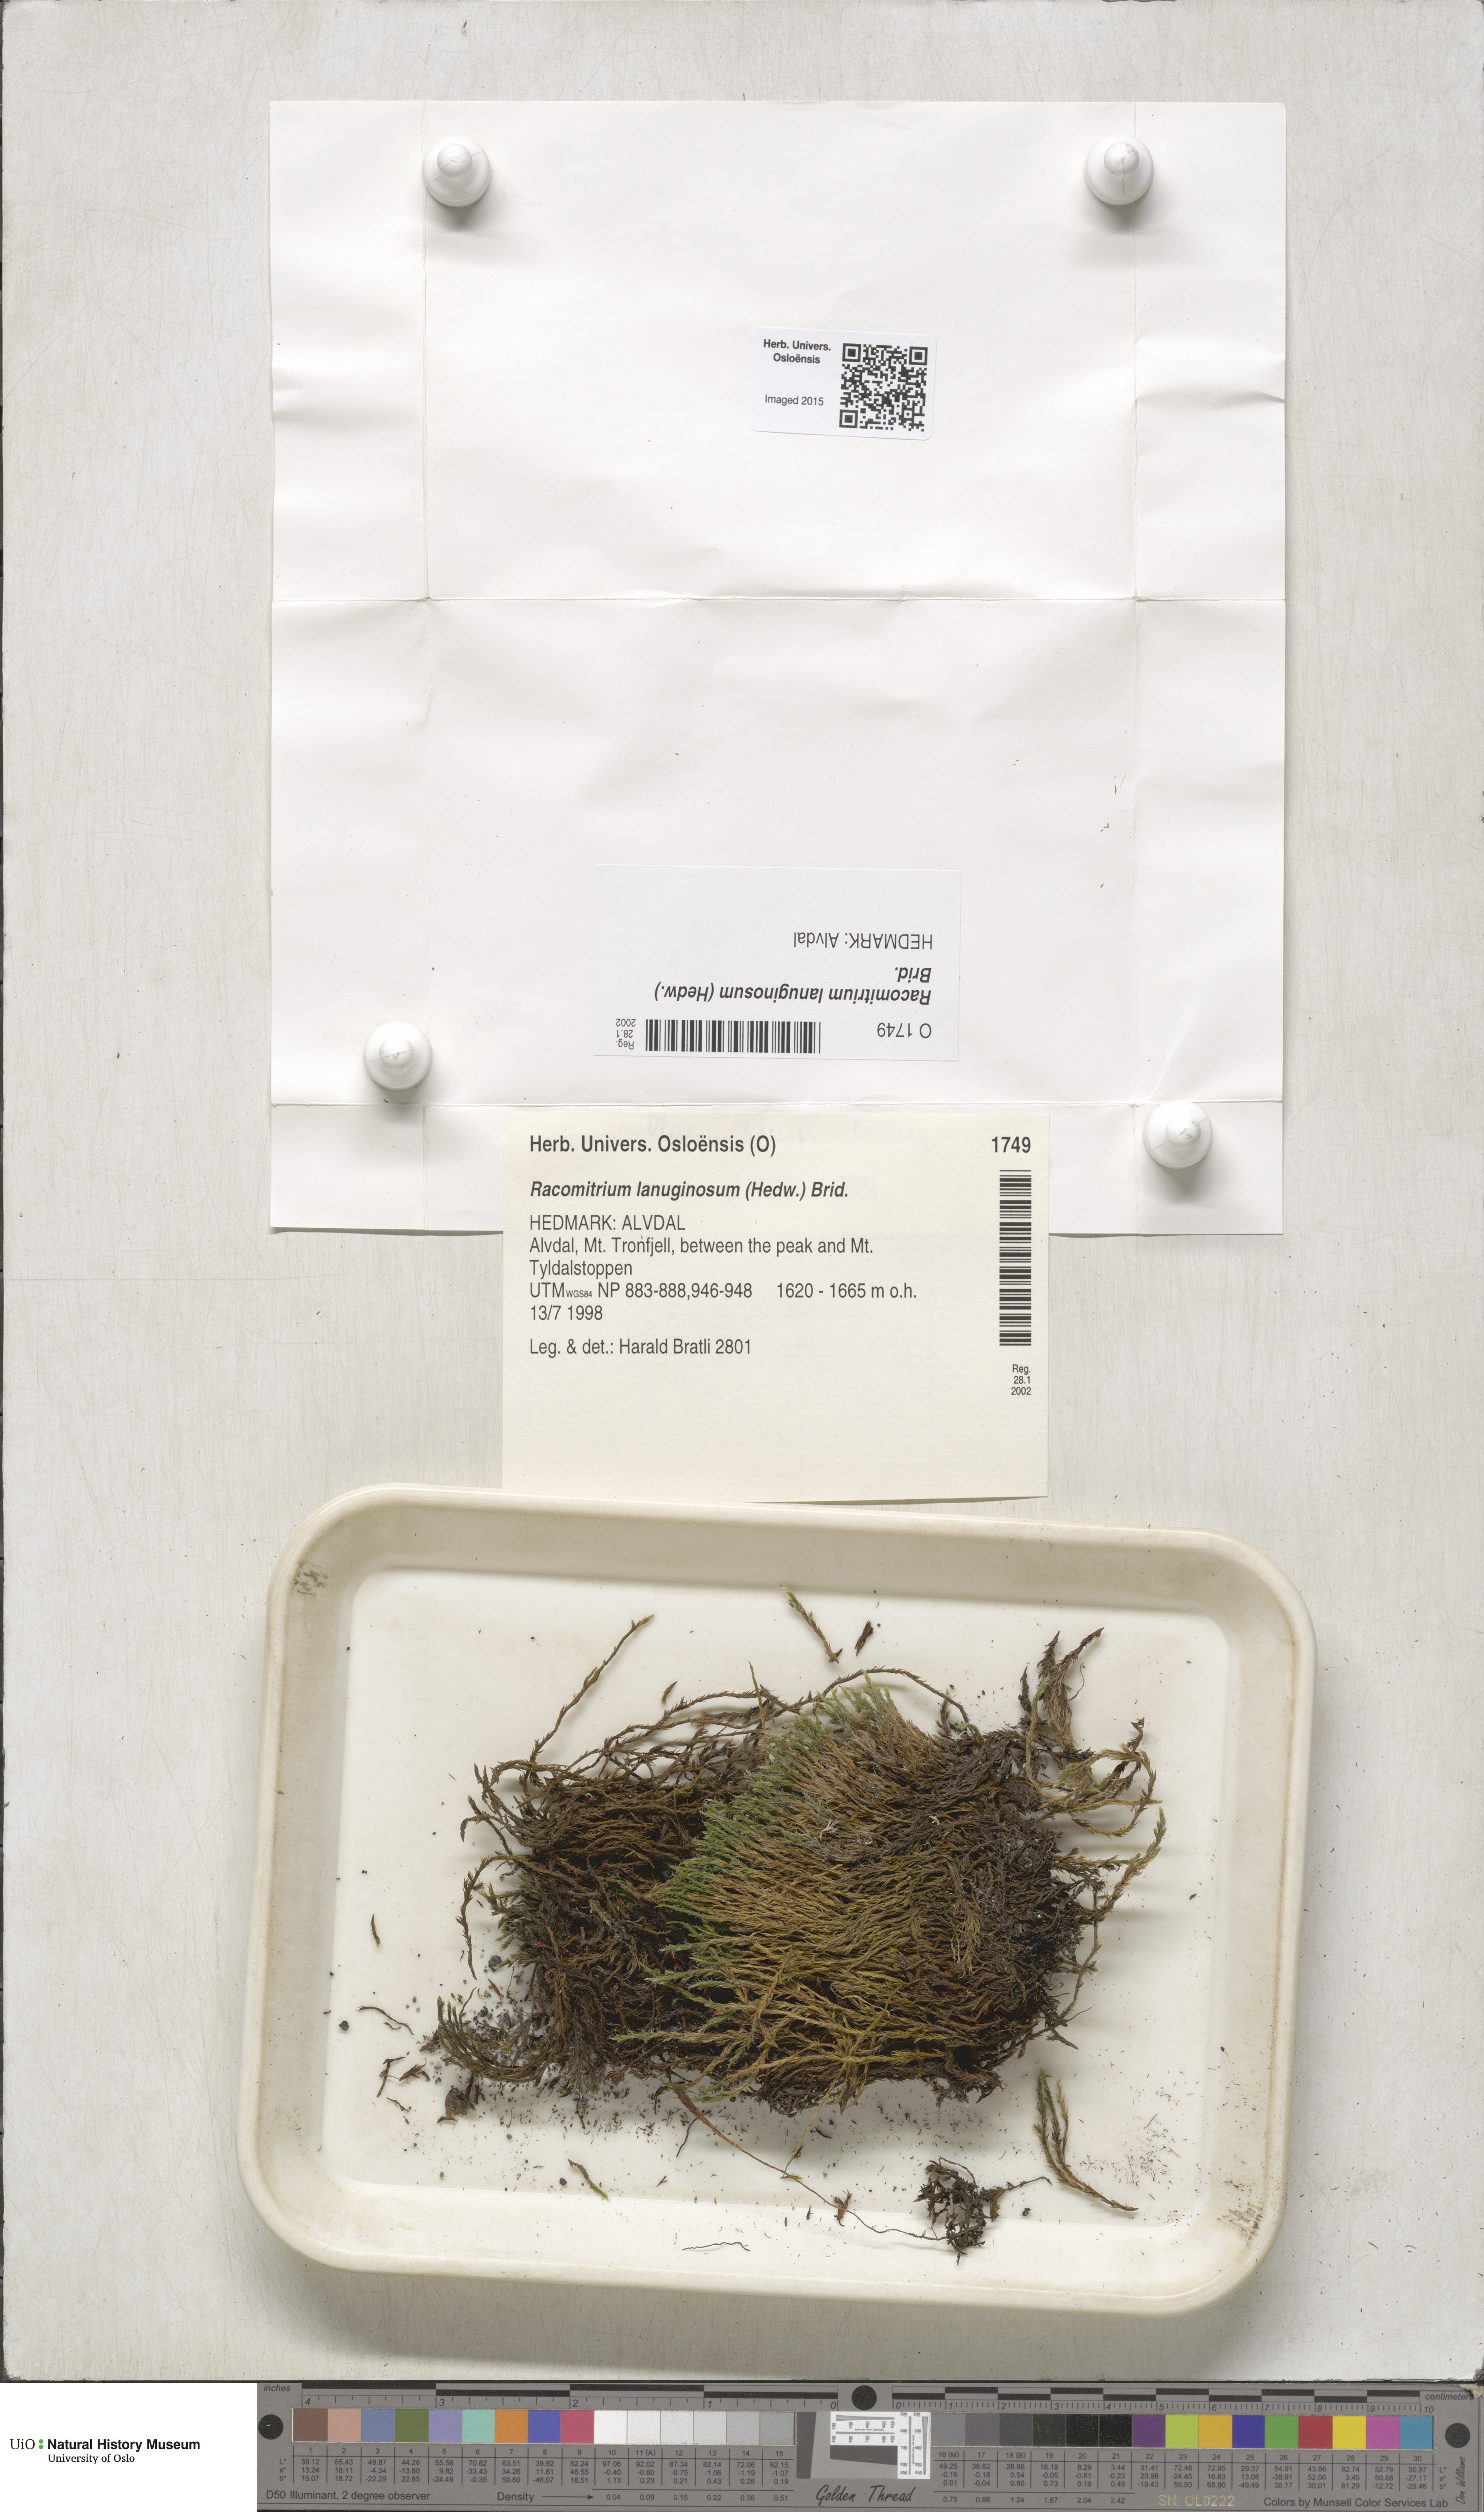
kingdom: Plantae
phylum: Bryophyta
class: Bryopsida
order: Grimmiales
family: Grimmiaceae
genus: Racomitrium
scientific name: Racomitrium lanuginosum
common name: Hoary rock moss
